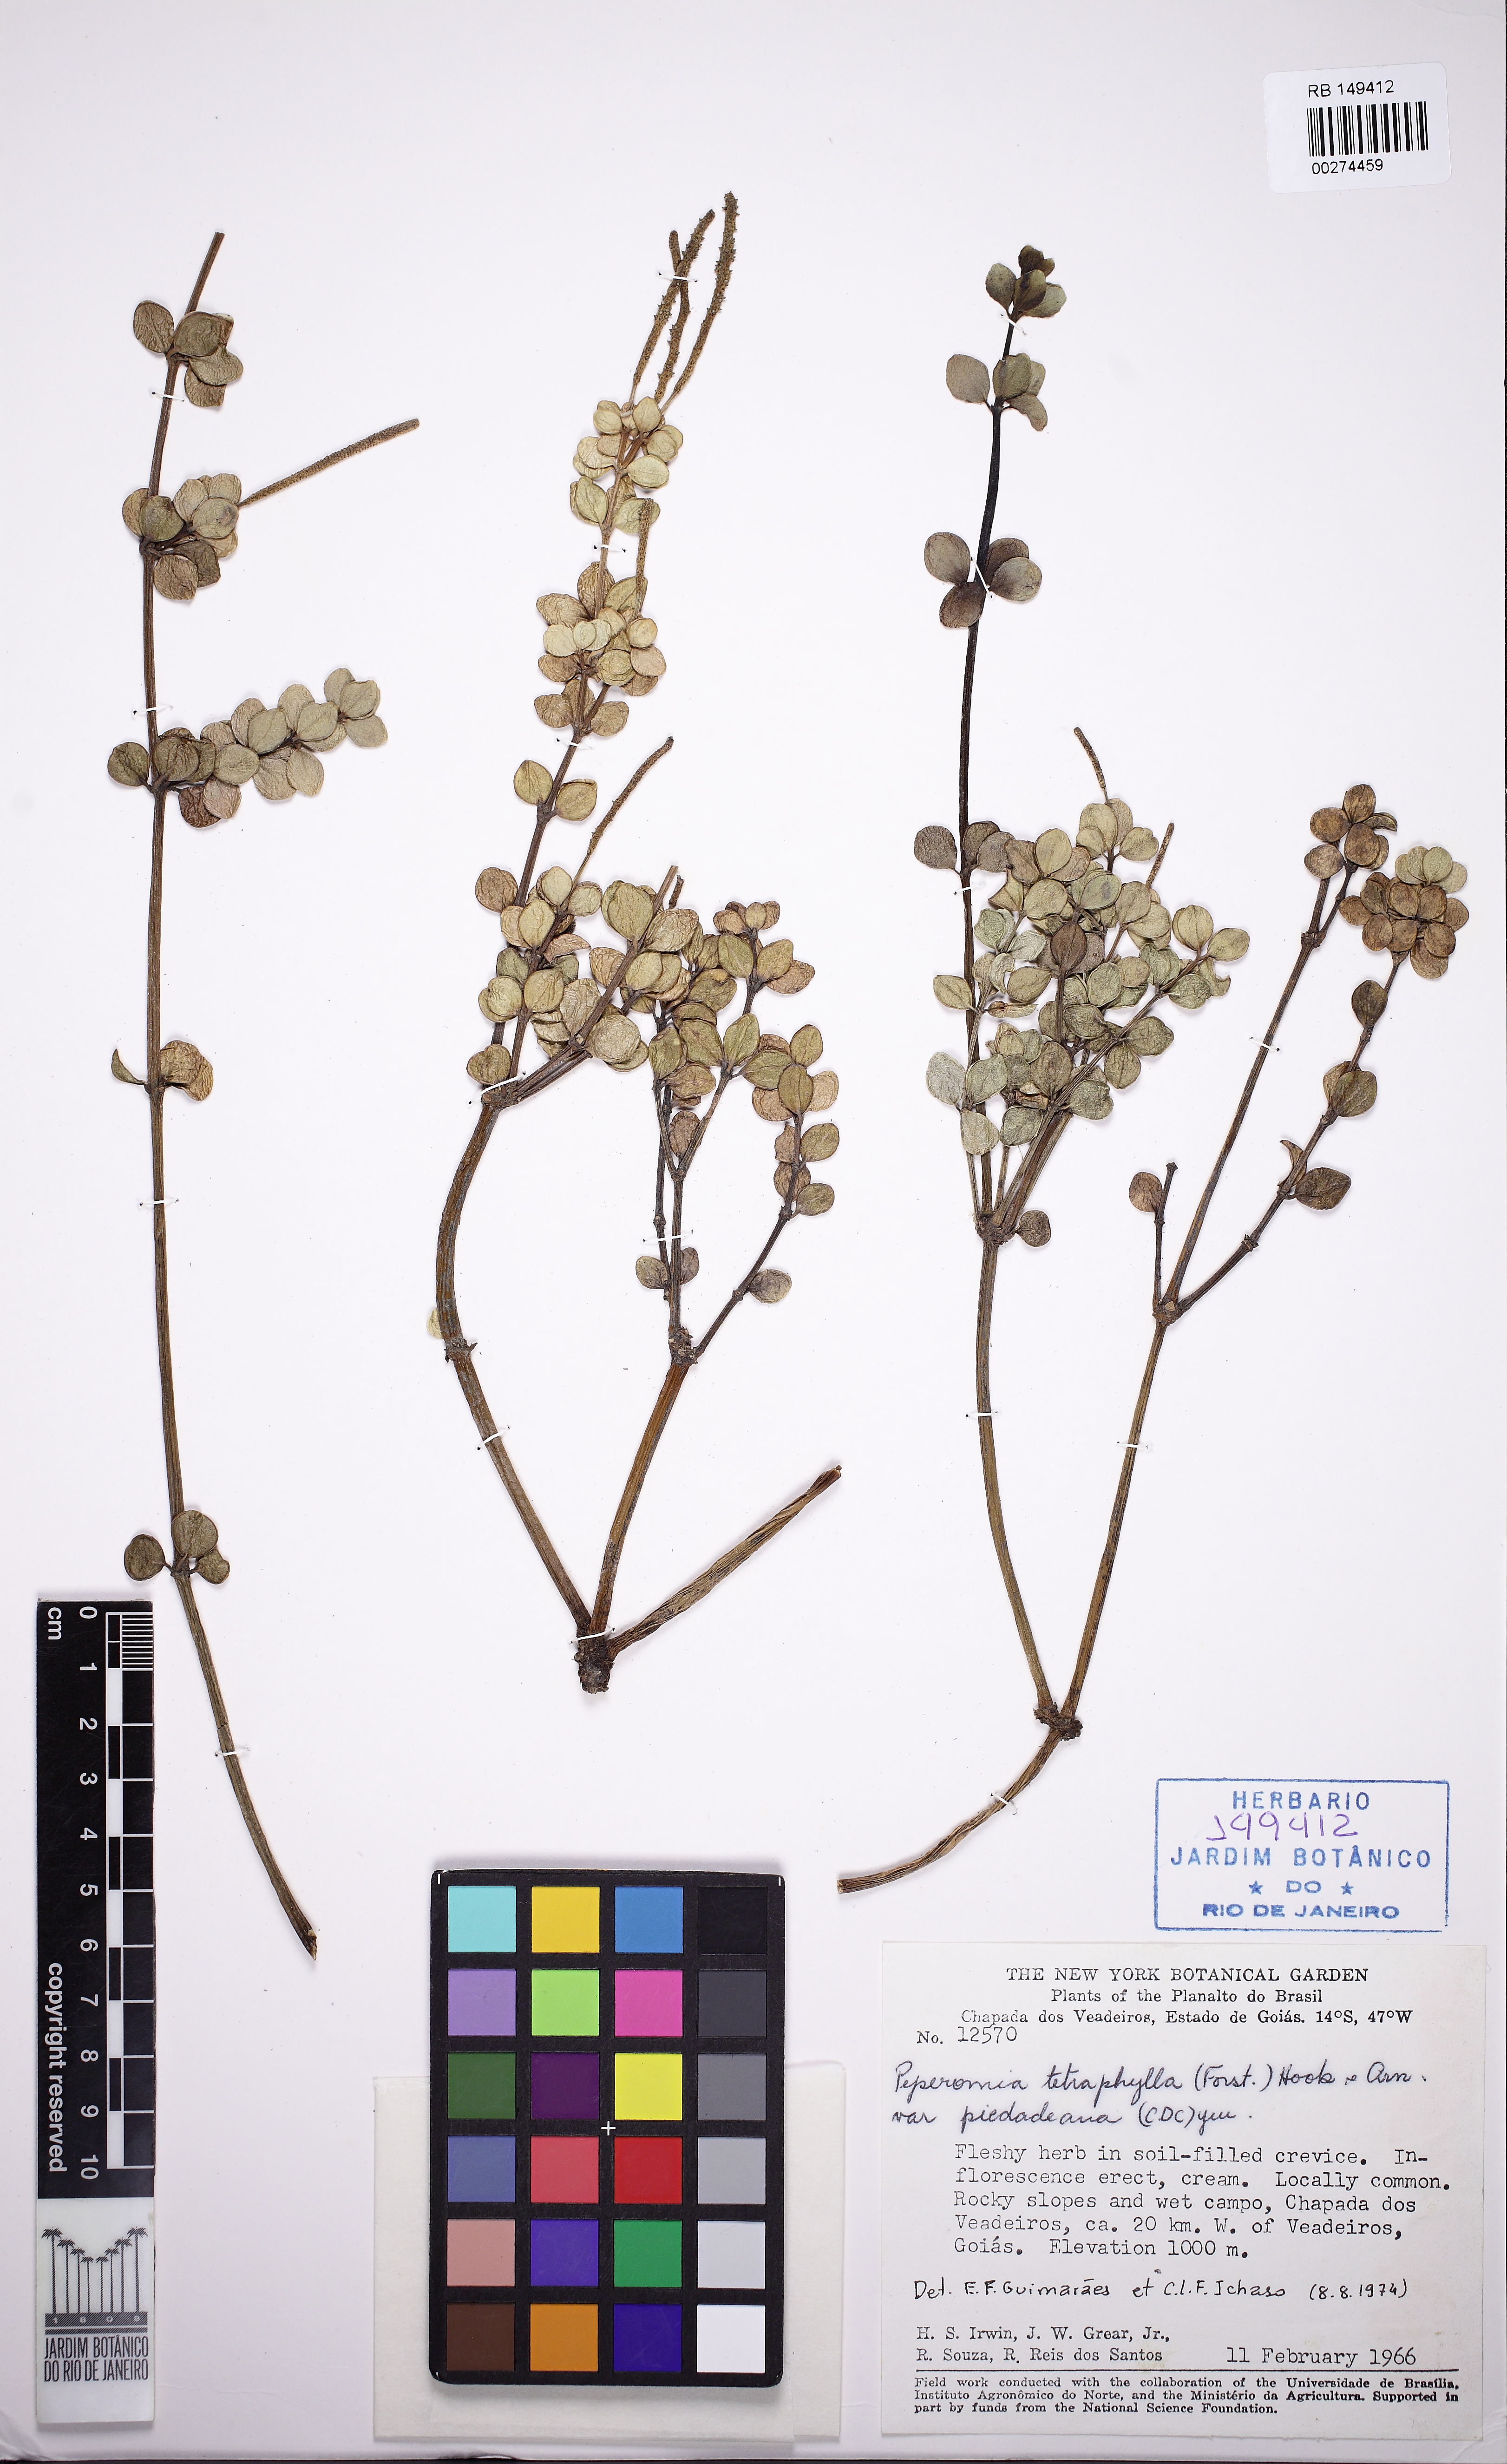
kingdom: Plantae
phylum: Tracheophyta
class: Magnoliopsida
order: Piperales
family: Piperaceae
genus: Peperomia
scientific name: Peperomia tetraphylla
